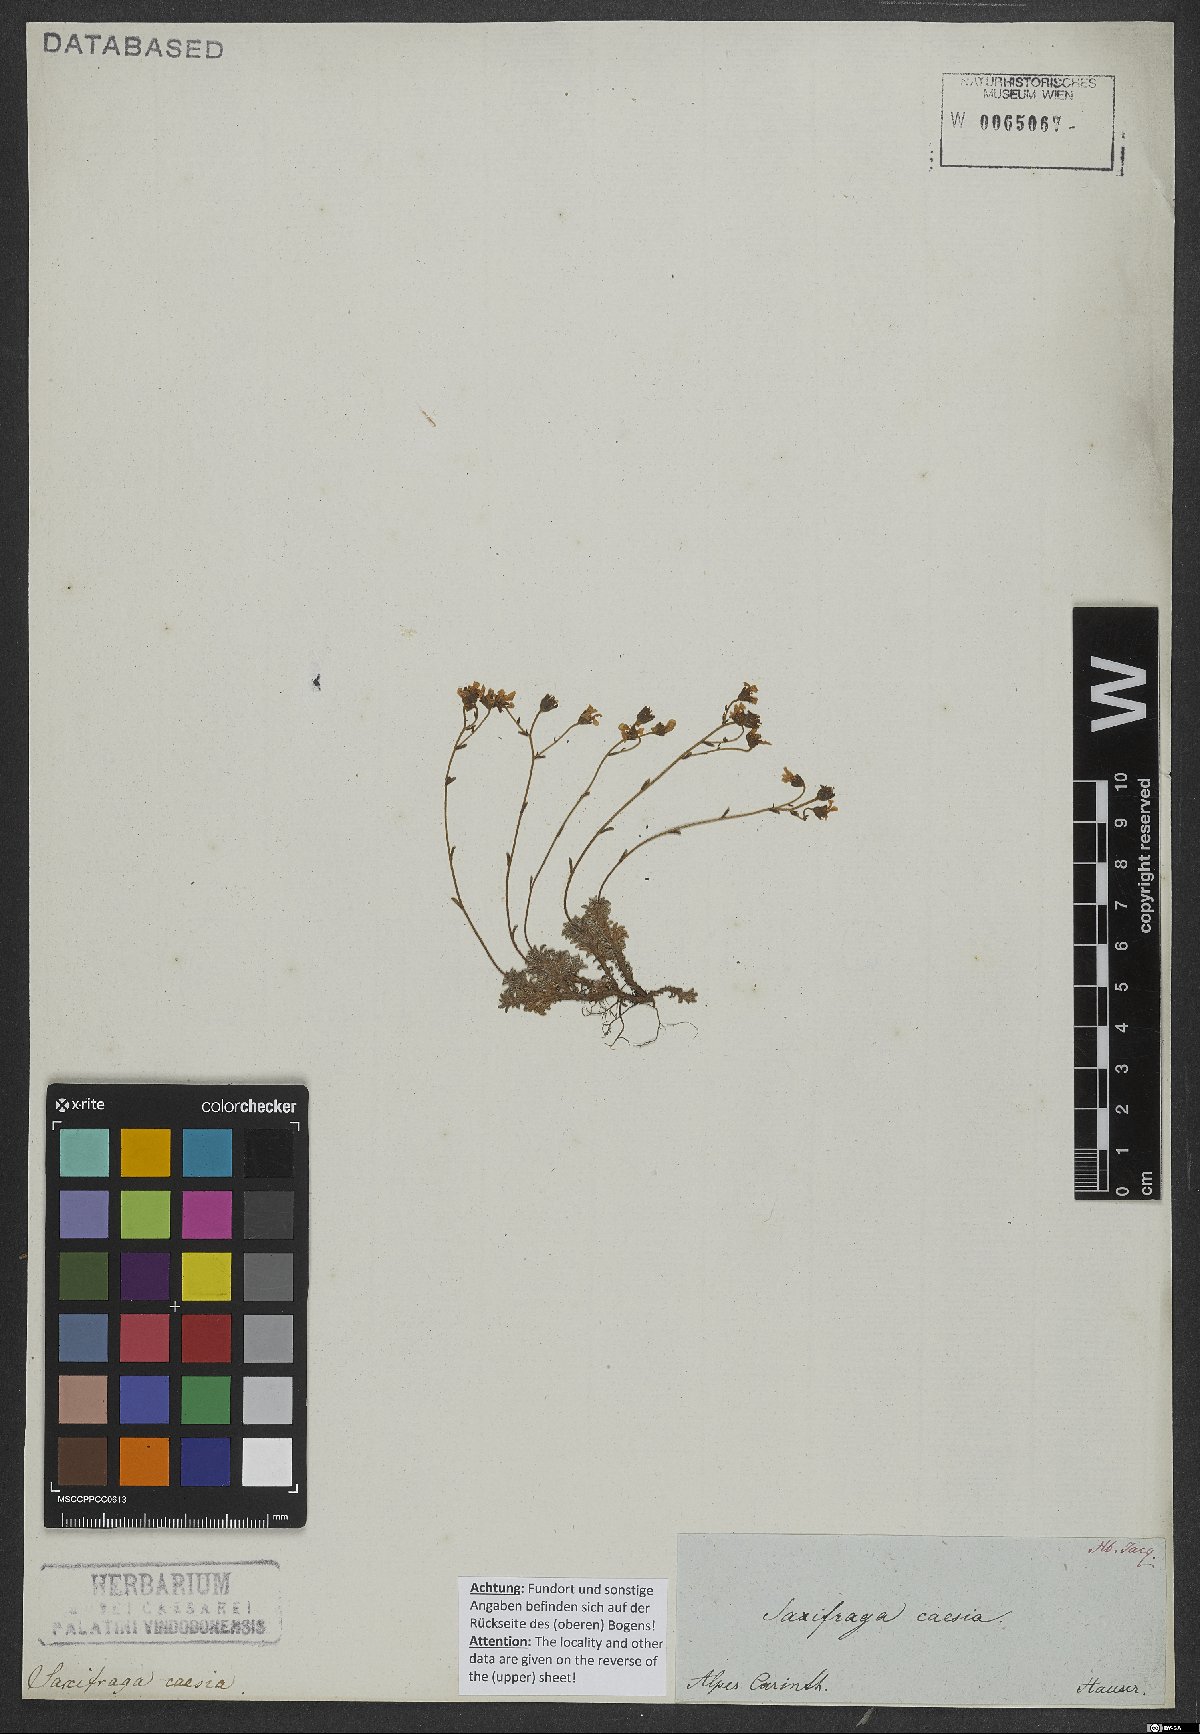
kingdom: Plantae
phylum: Tracheophyta
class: Magnoliopsida
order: Saxifragales
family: Saxifragaceae
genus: Saxifraga
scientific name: Saxifraga caesia
